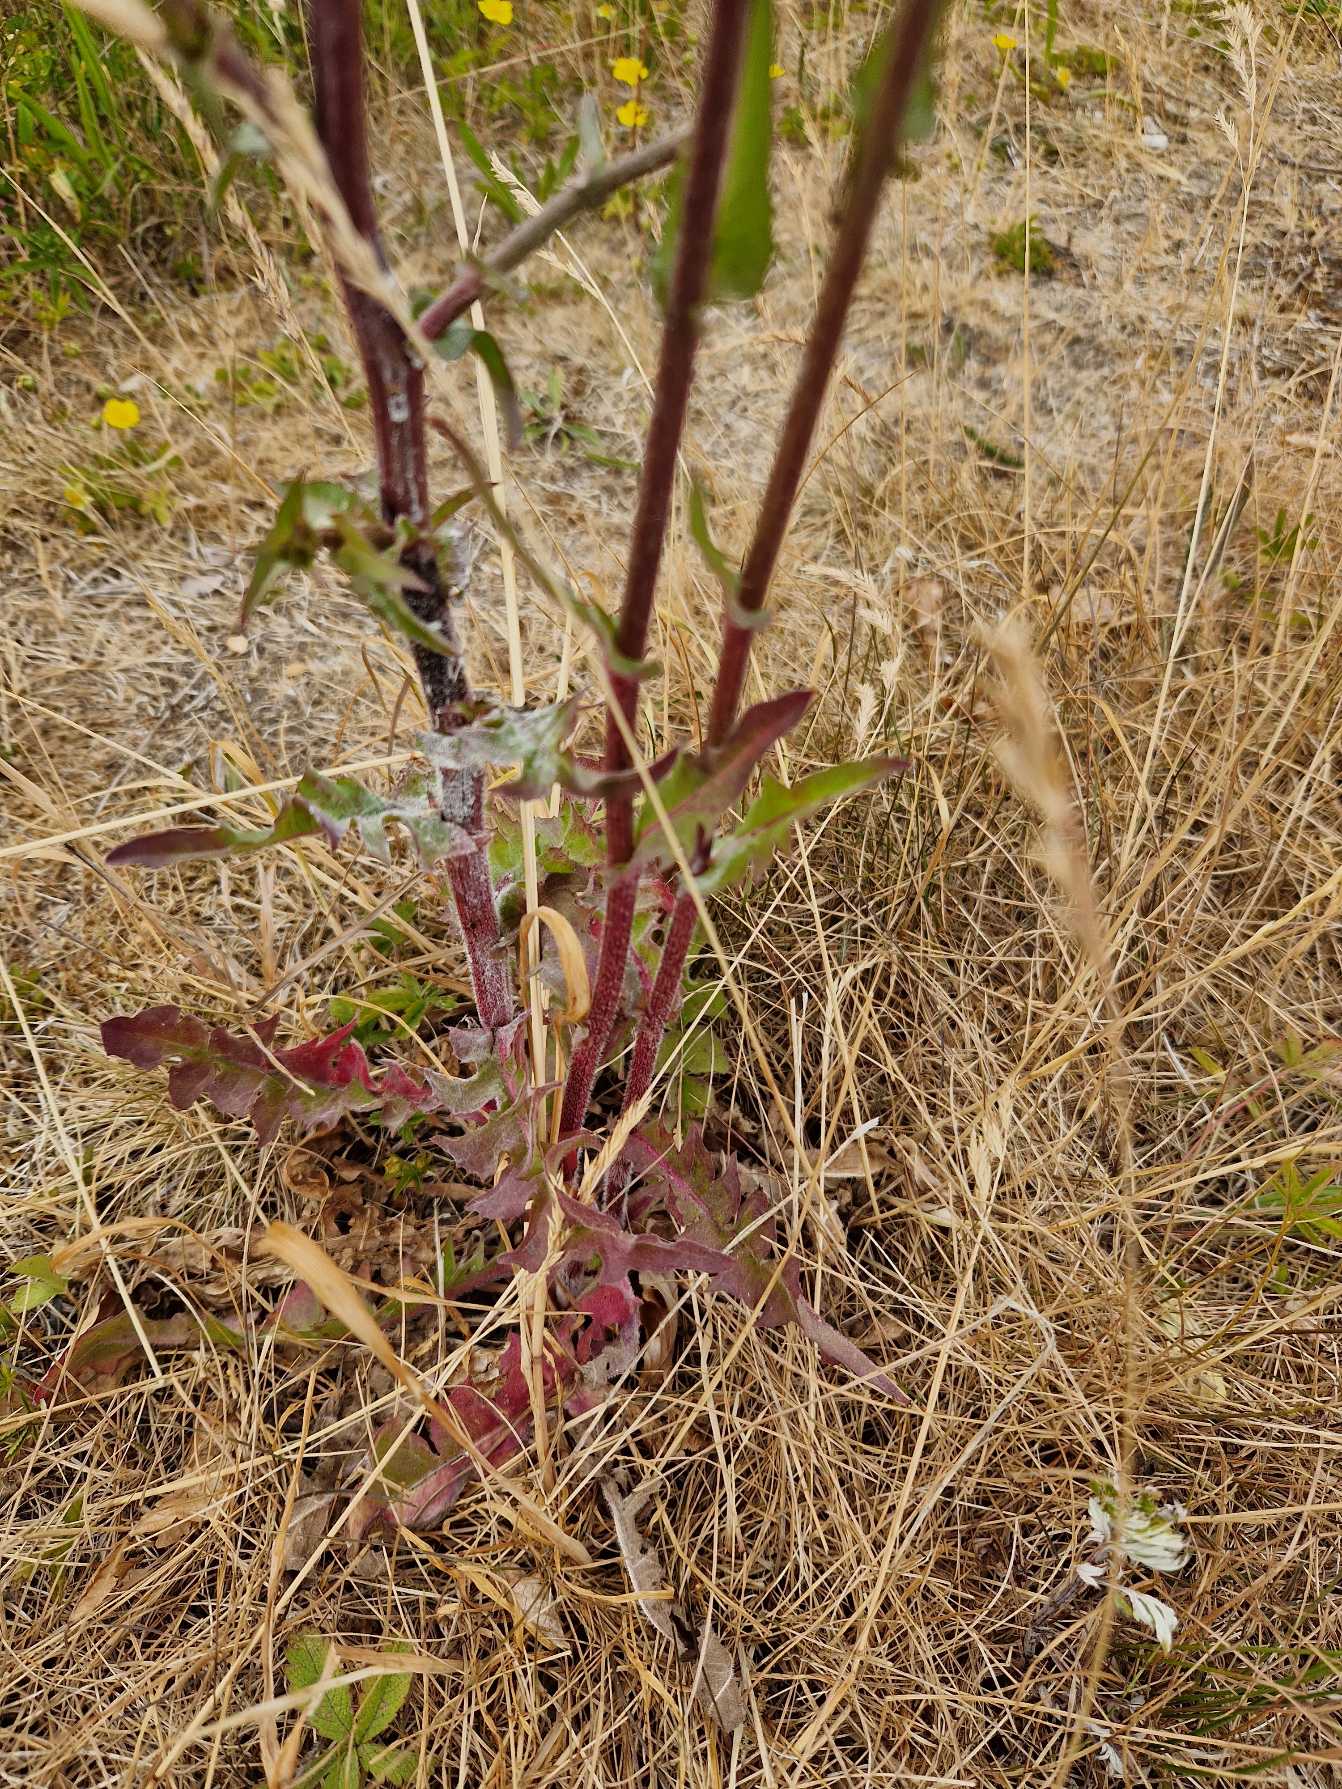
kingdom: Plantae
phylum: Tracheophyta
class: Magnoliopsida
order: Asterales
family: Asteraceae
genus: Cichorium
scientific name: Cichorium intybus
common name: Cikorie
